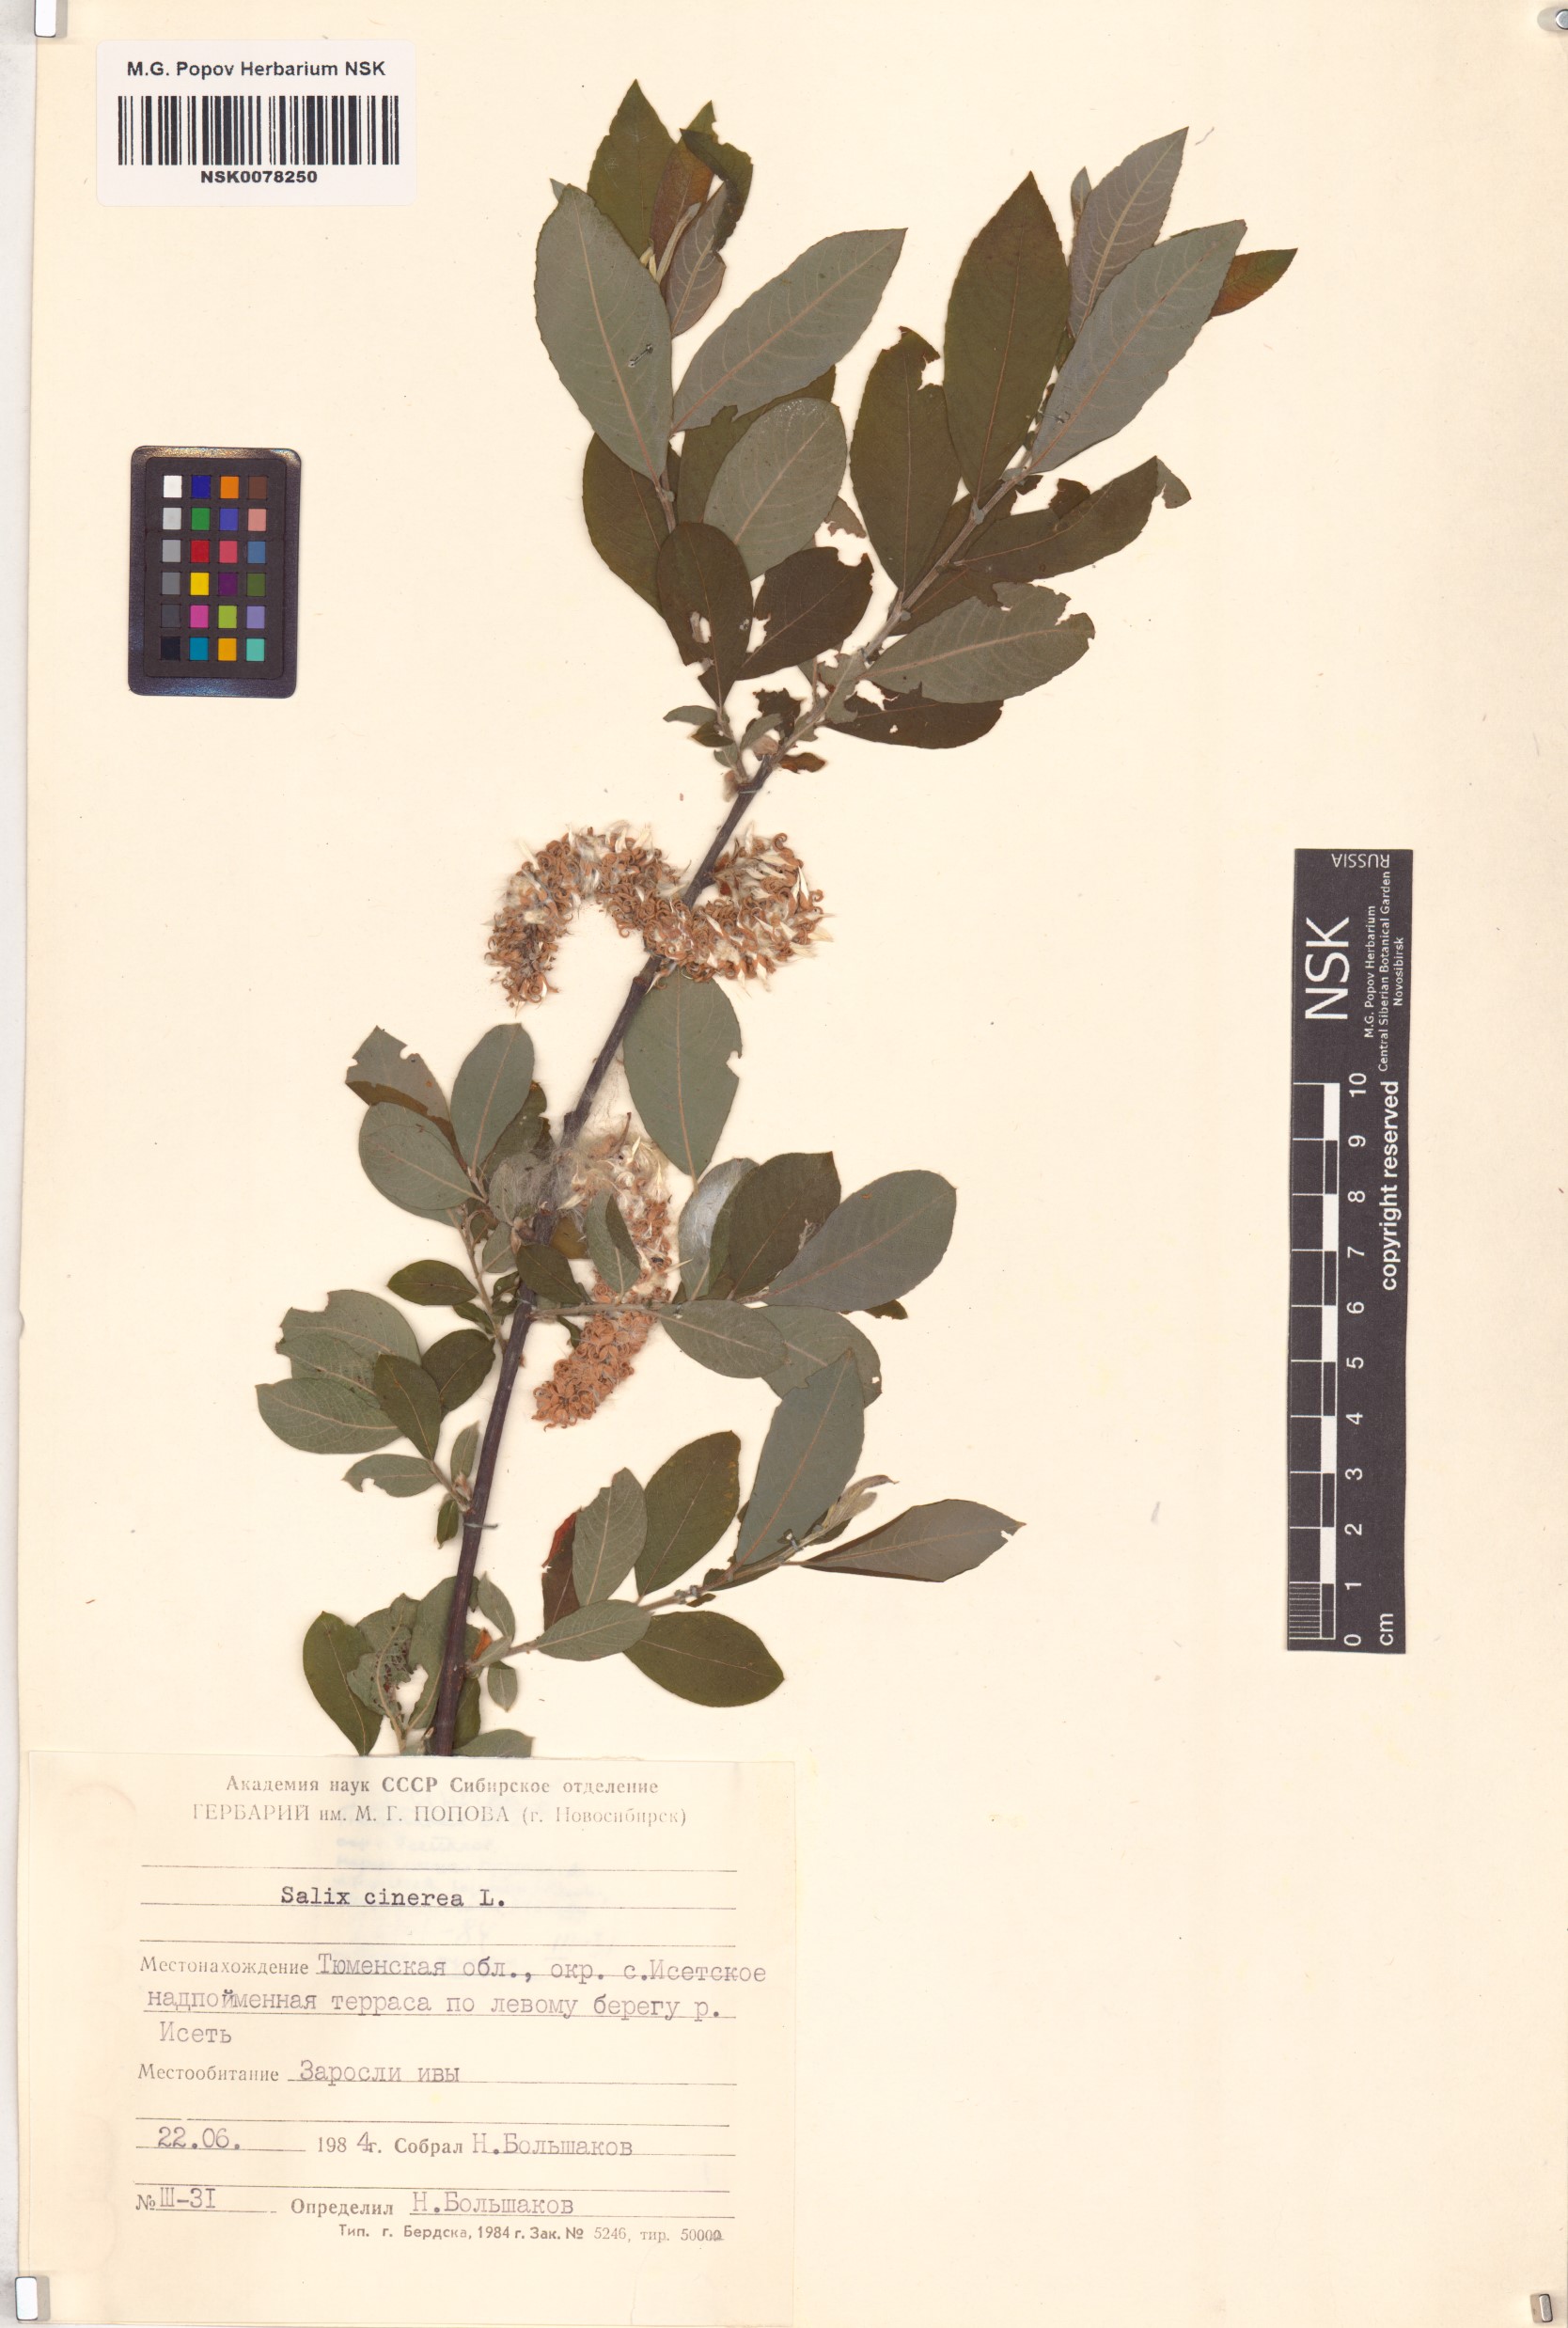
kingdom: Plantae
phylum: Tracheophyta
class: Magnoliopsida
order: Malpighiales
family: Salicaceae
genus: Salix
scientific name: Salix cinerea
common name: Common sallow
